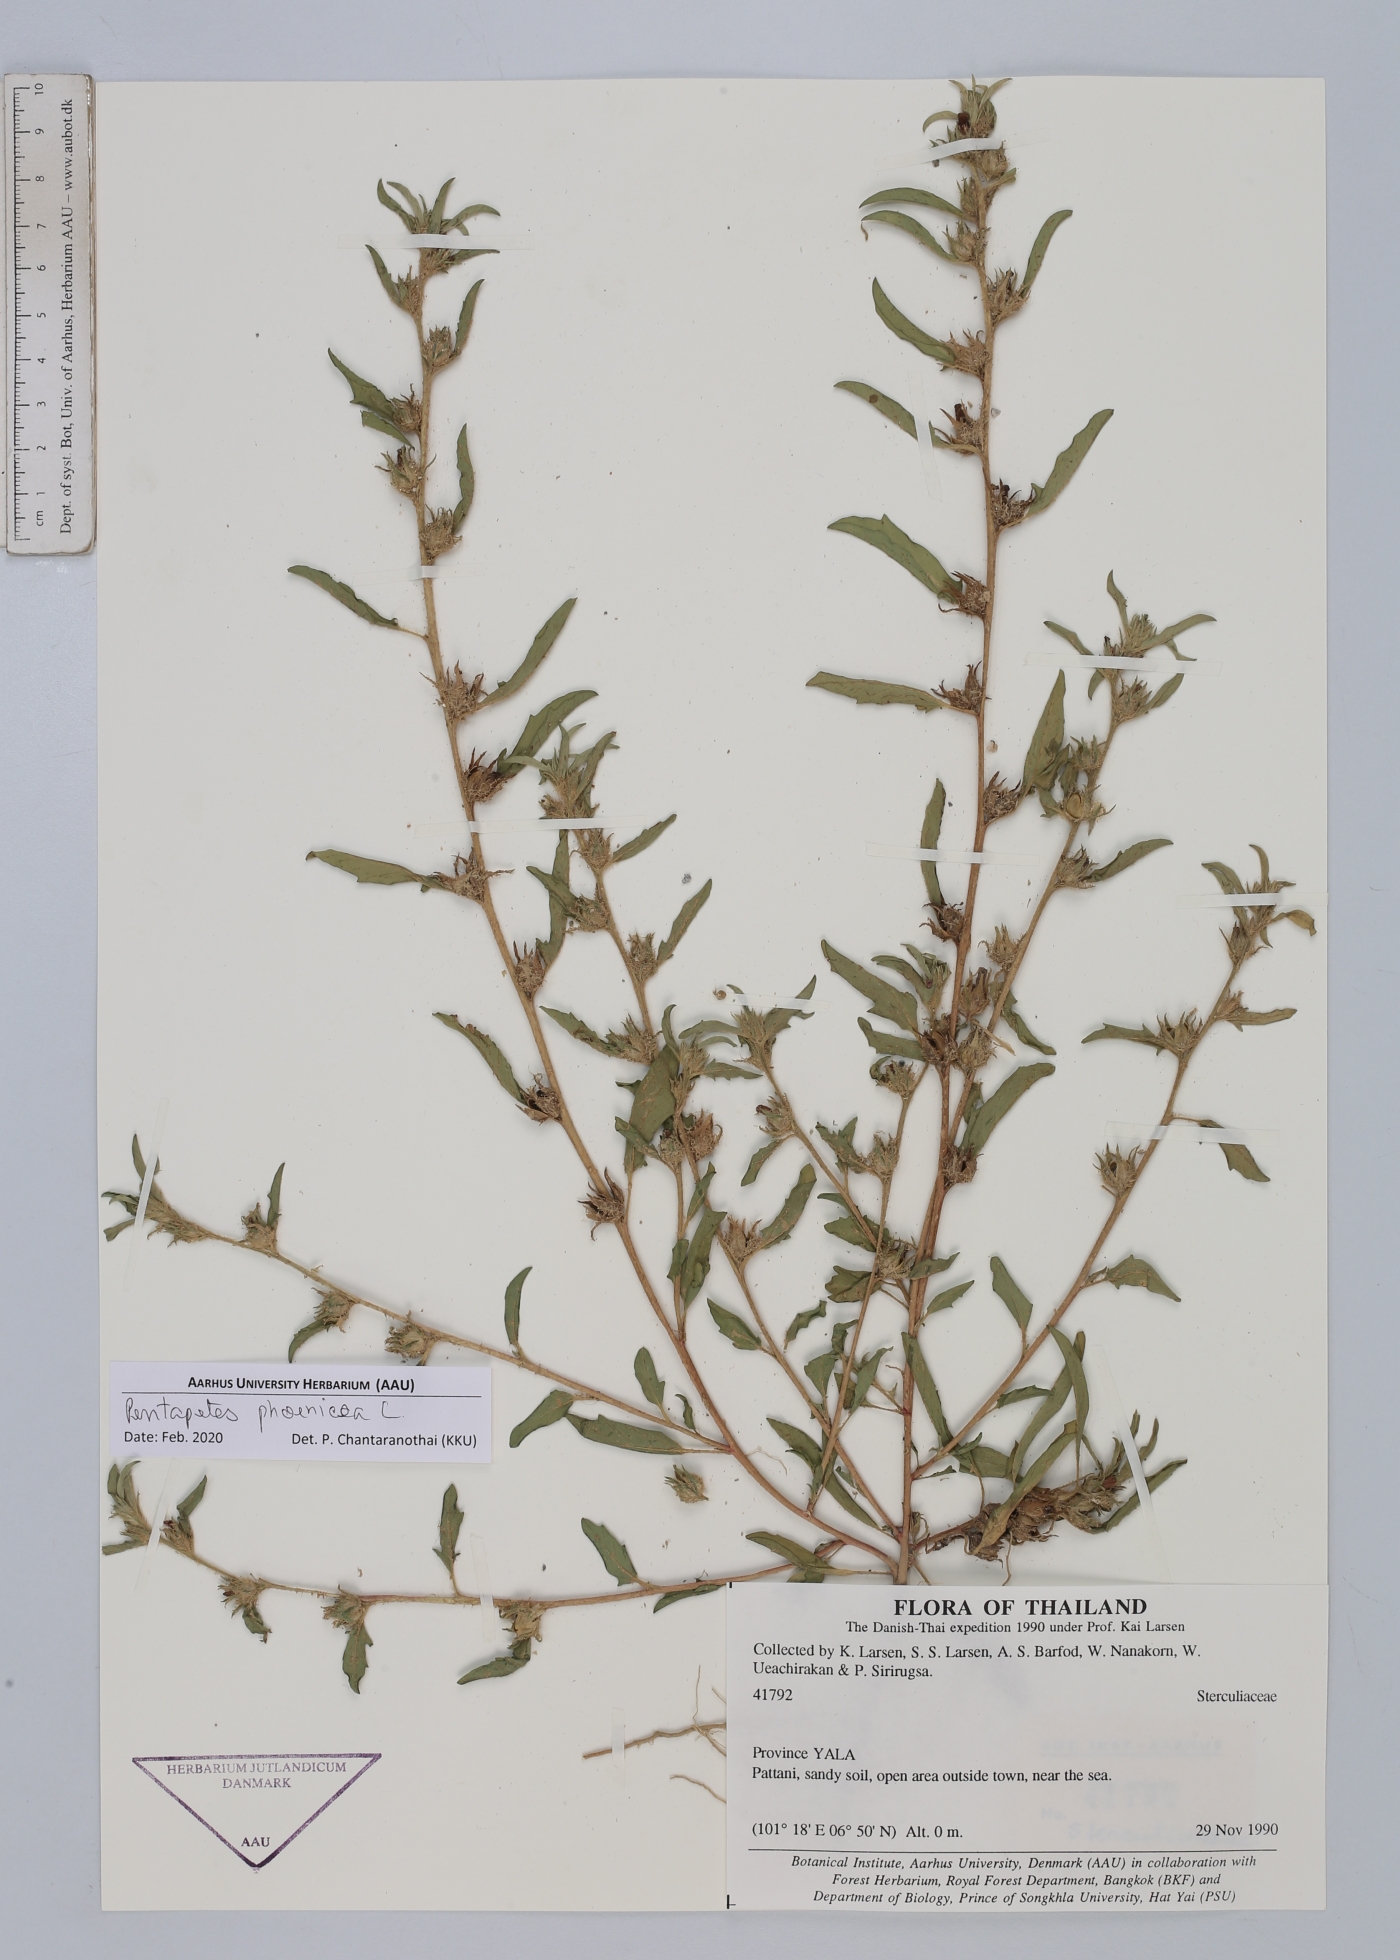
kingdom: Plantae
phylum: Tracheophyta
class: Magnoliopsida
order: Malvales
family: Malvaceae
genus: Pentapetes
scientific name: Pentapetes phoenicea
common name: Copper-cups
